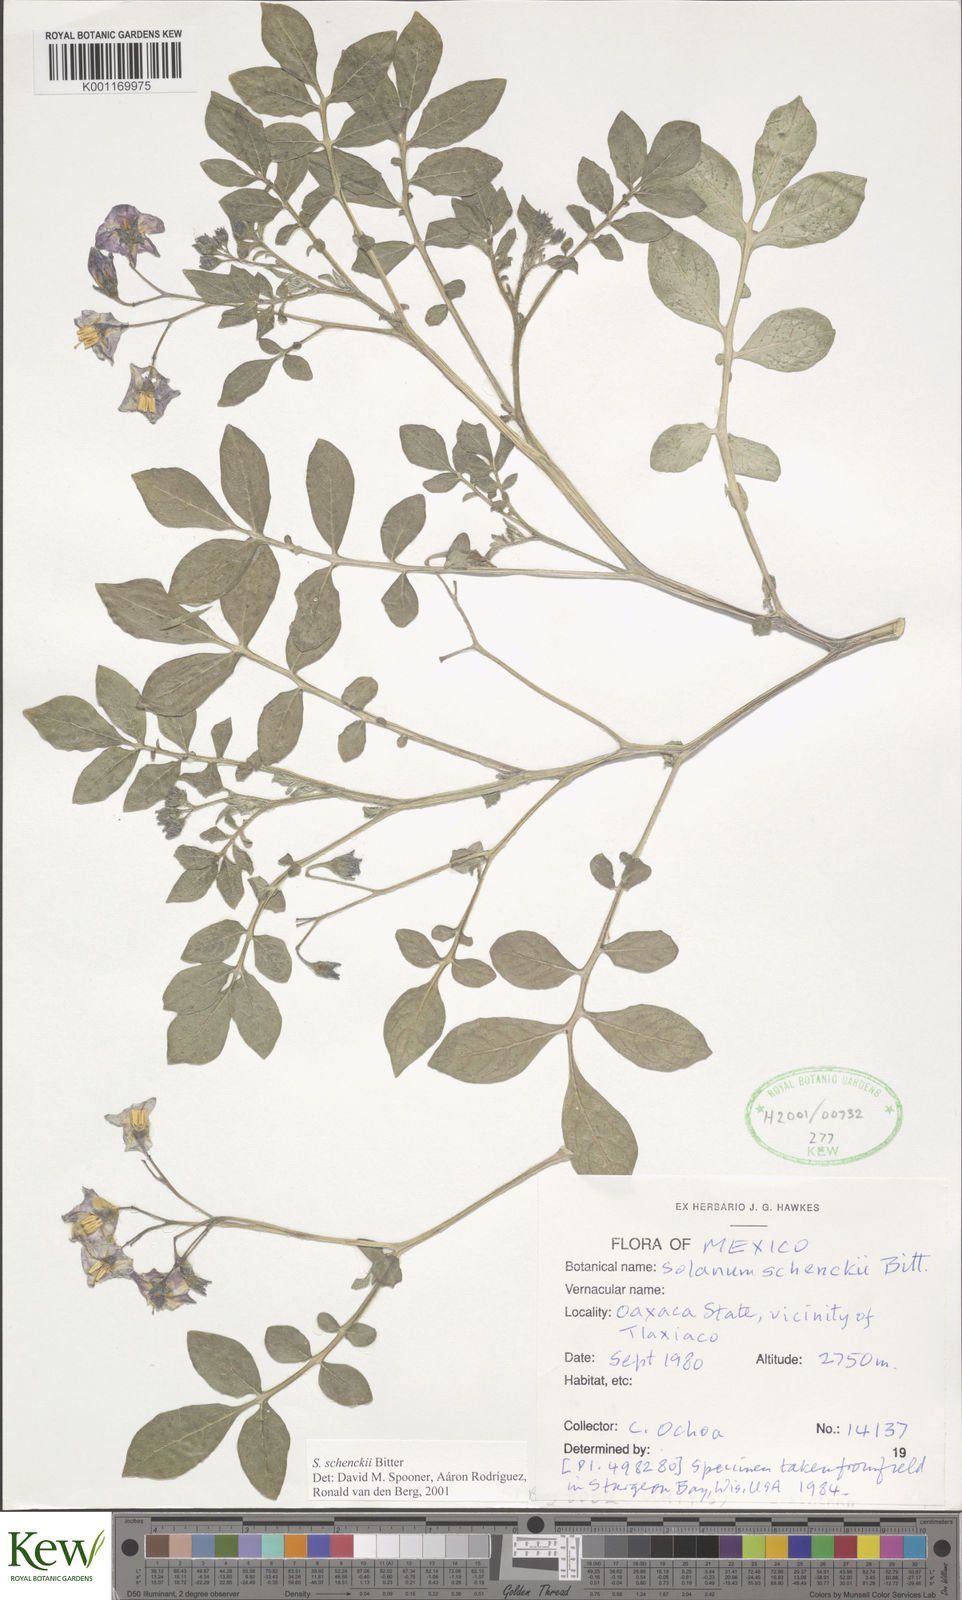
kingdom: Plantae
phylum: Tracheophyta
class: Magnoliopsida
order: Solanales
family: Solanaceae
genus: Solanum
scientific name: Solanum
